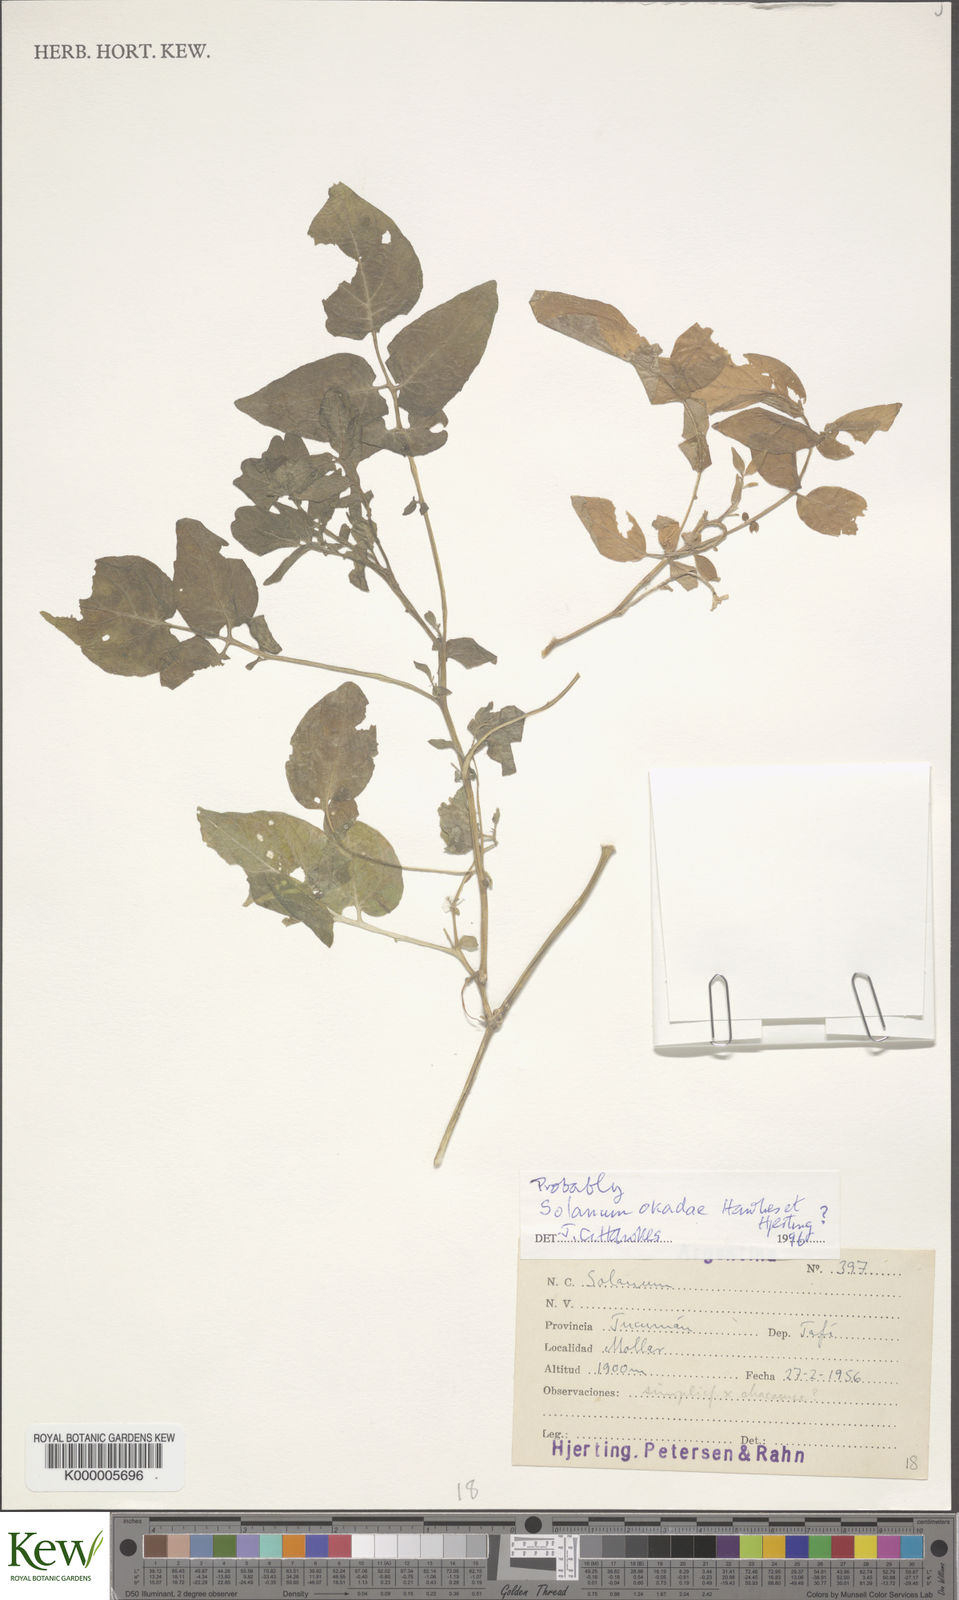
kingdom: Plantae
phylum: Tracheophyta
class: Magnoliopsida
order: Solanales
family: Solanaceae
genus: Solanum
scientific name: Solanum okadae
